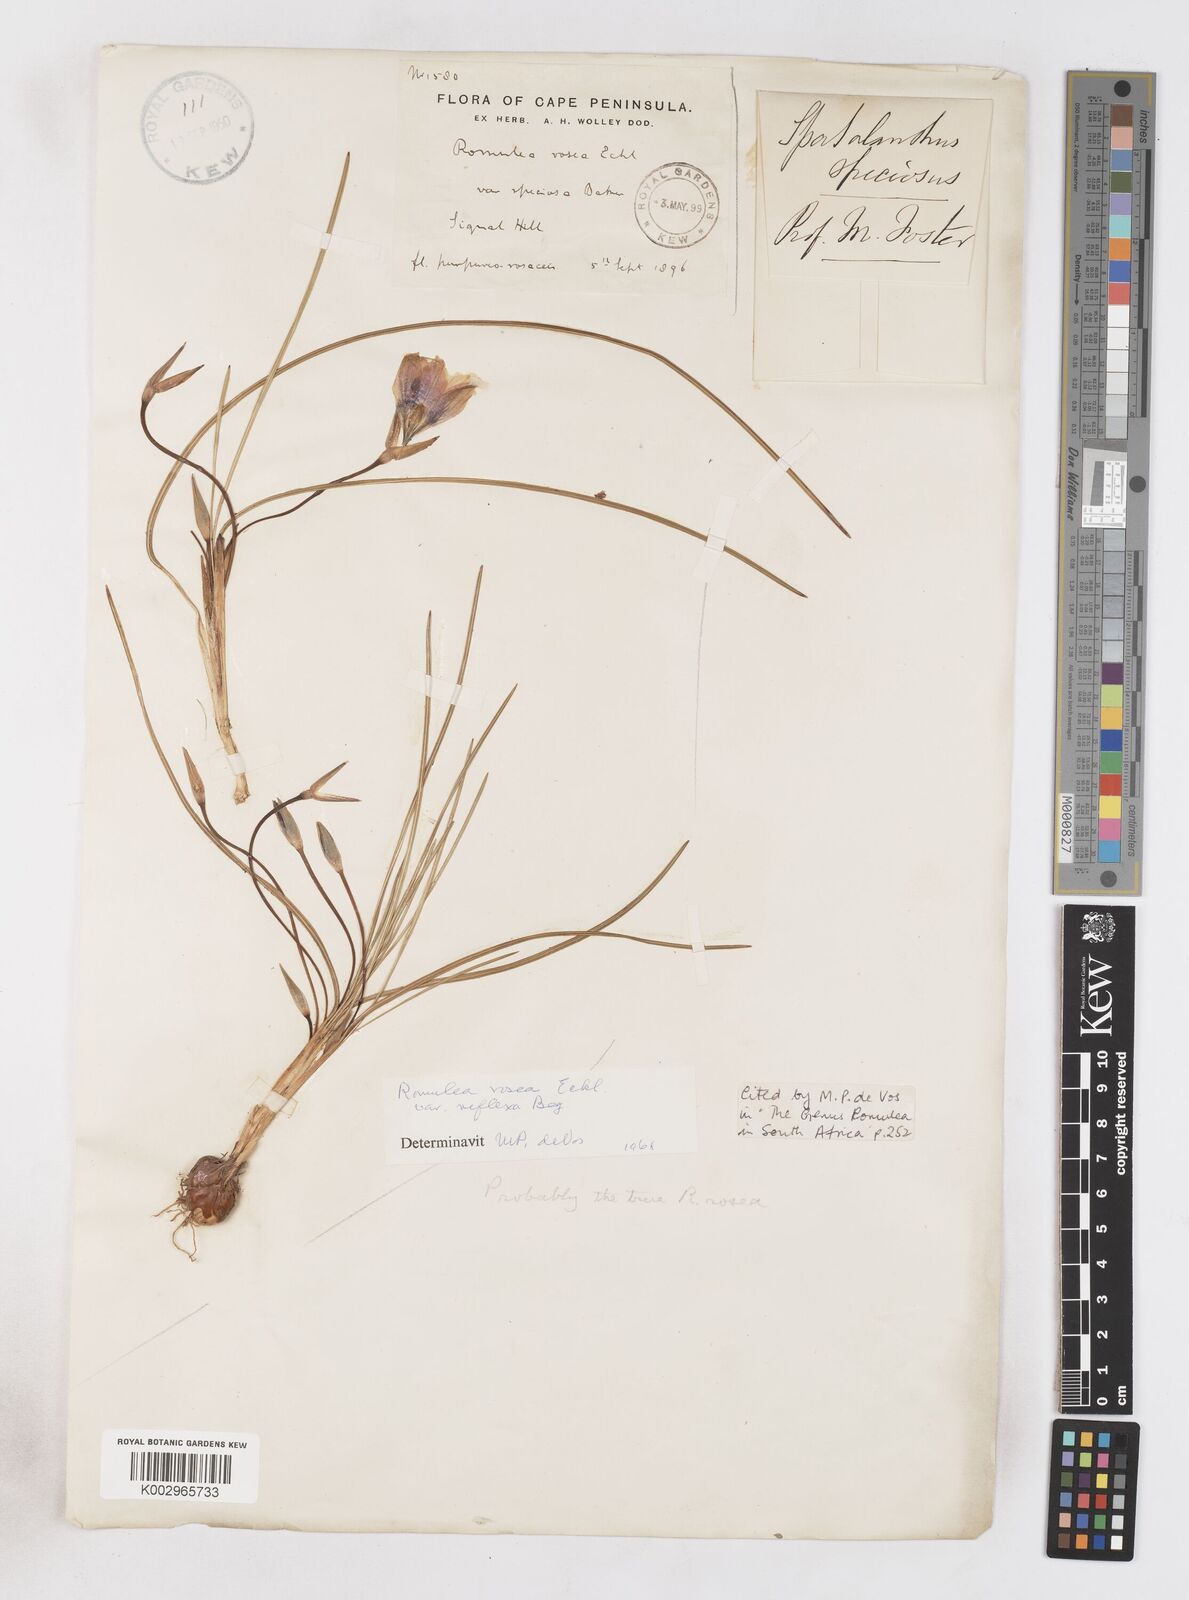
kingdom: Plantae
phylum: Tracheophyta
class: Liliopsida
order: Asparagales
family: Iridaceae
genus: Romulea
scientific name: Romulea rosea
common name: Oniongrass
